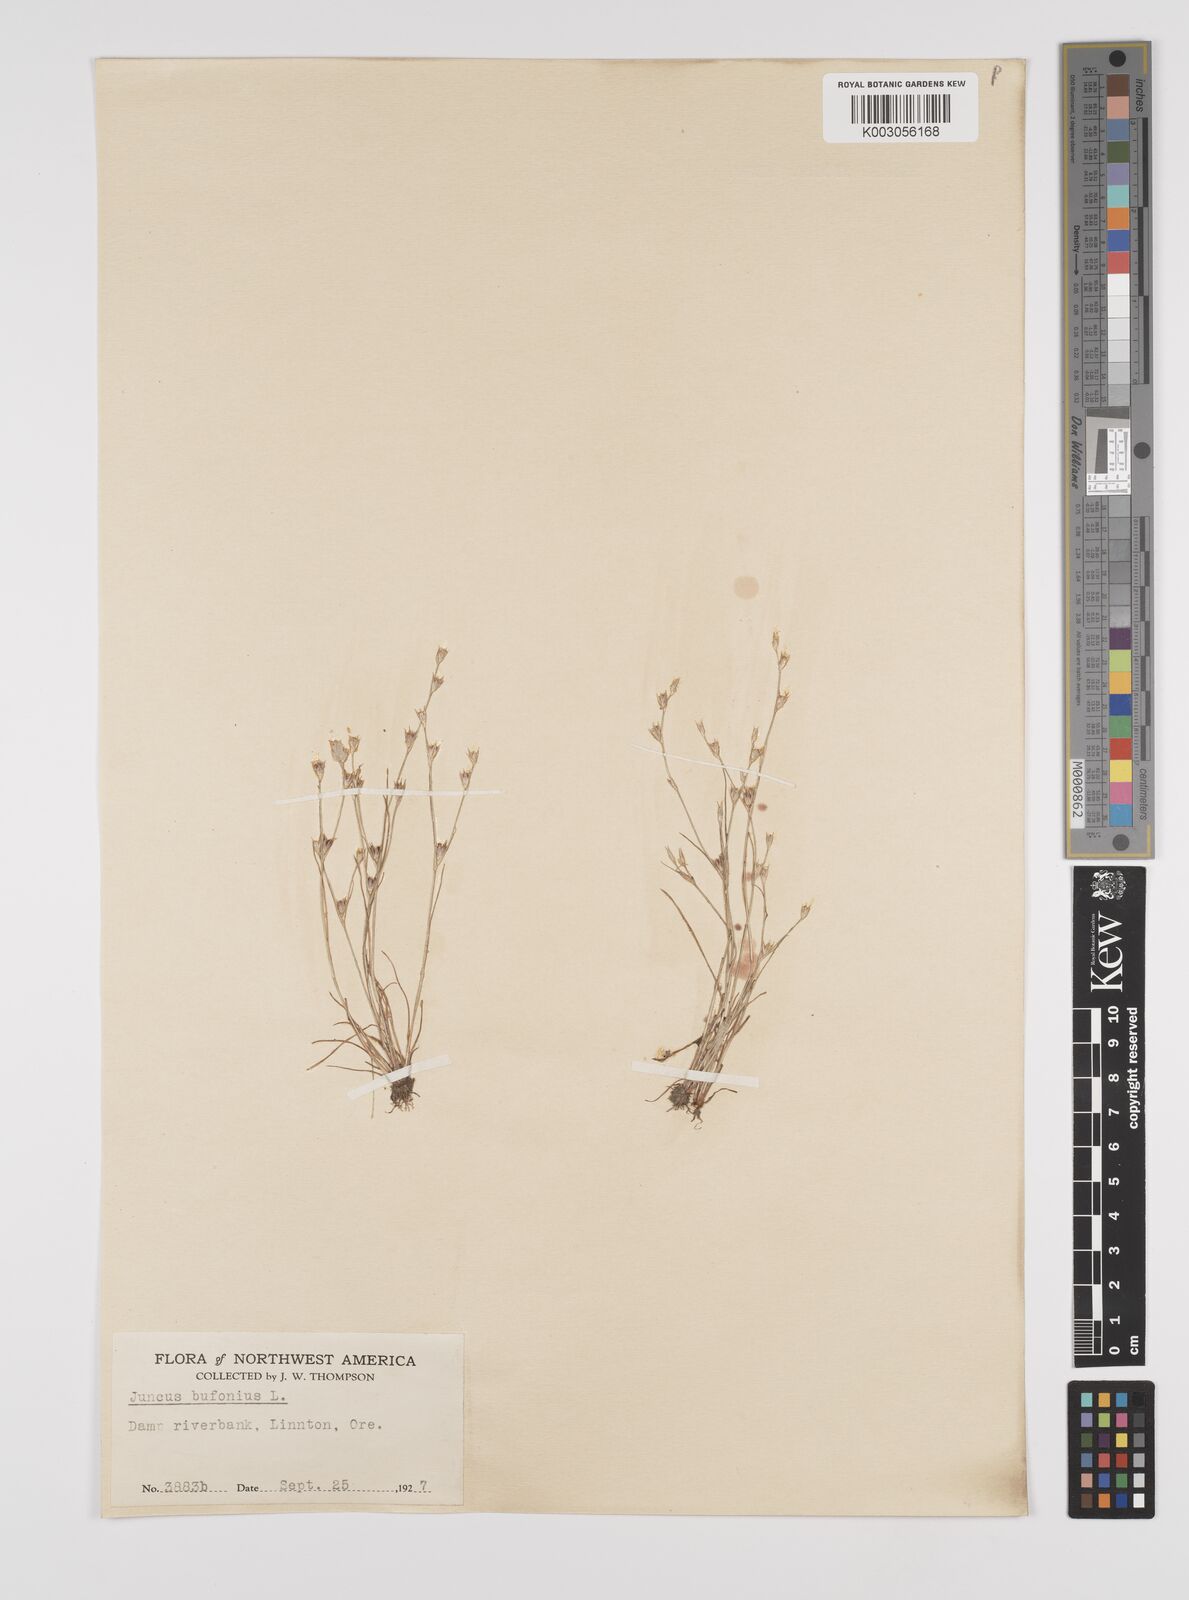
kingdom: Plantae
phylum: Tracheophyta
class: Liliopsida
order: Poales
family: Juncaceae
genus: Juncus
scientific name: Juncus bufonius
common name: Toad rush
